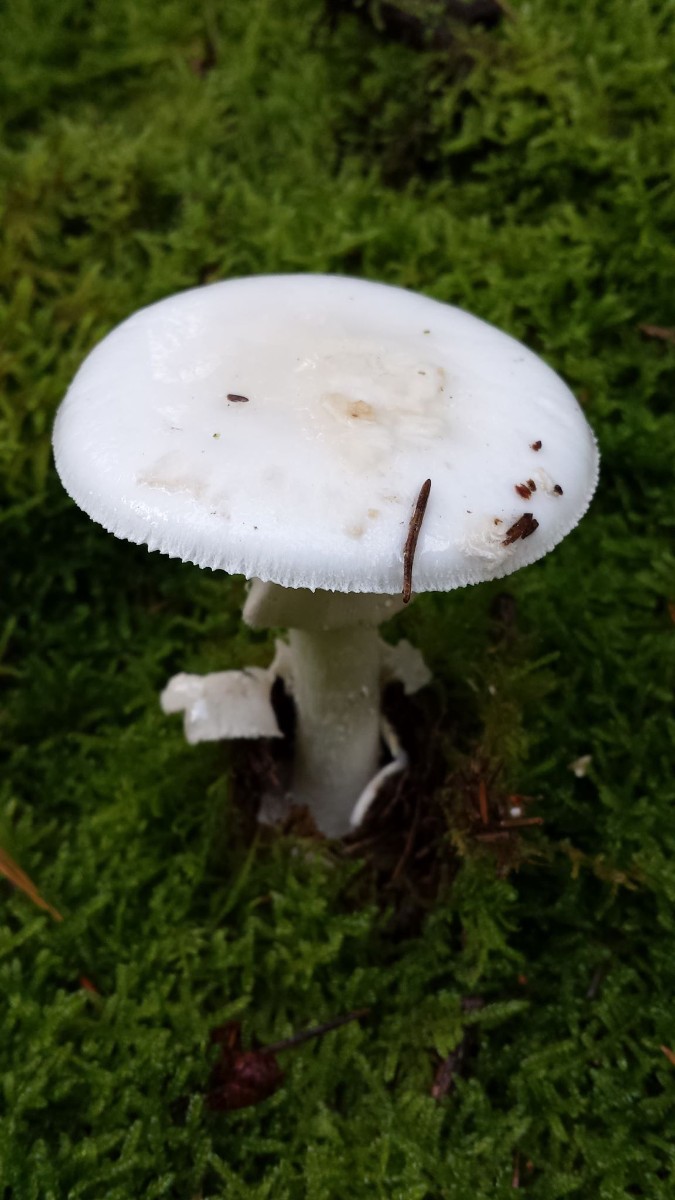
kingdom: Fungi
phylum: Basidiomycota
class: Agaricomycetes
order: Agaricales
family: Amanitaceae
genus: Amanita
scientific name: Amanita citrina
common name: False death-cap
